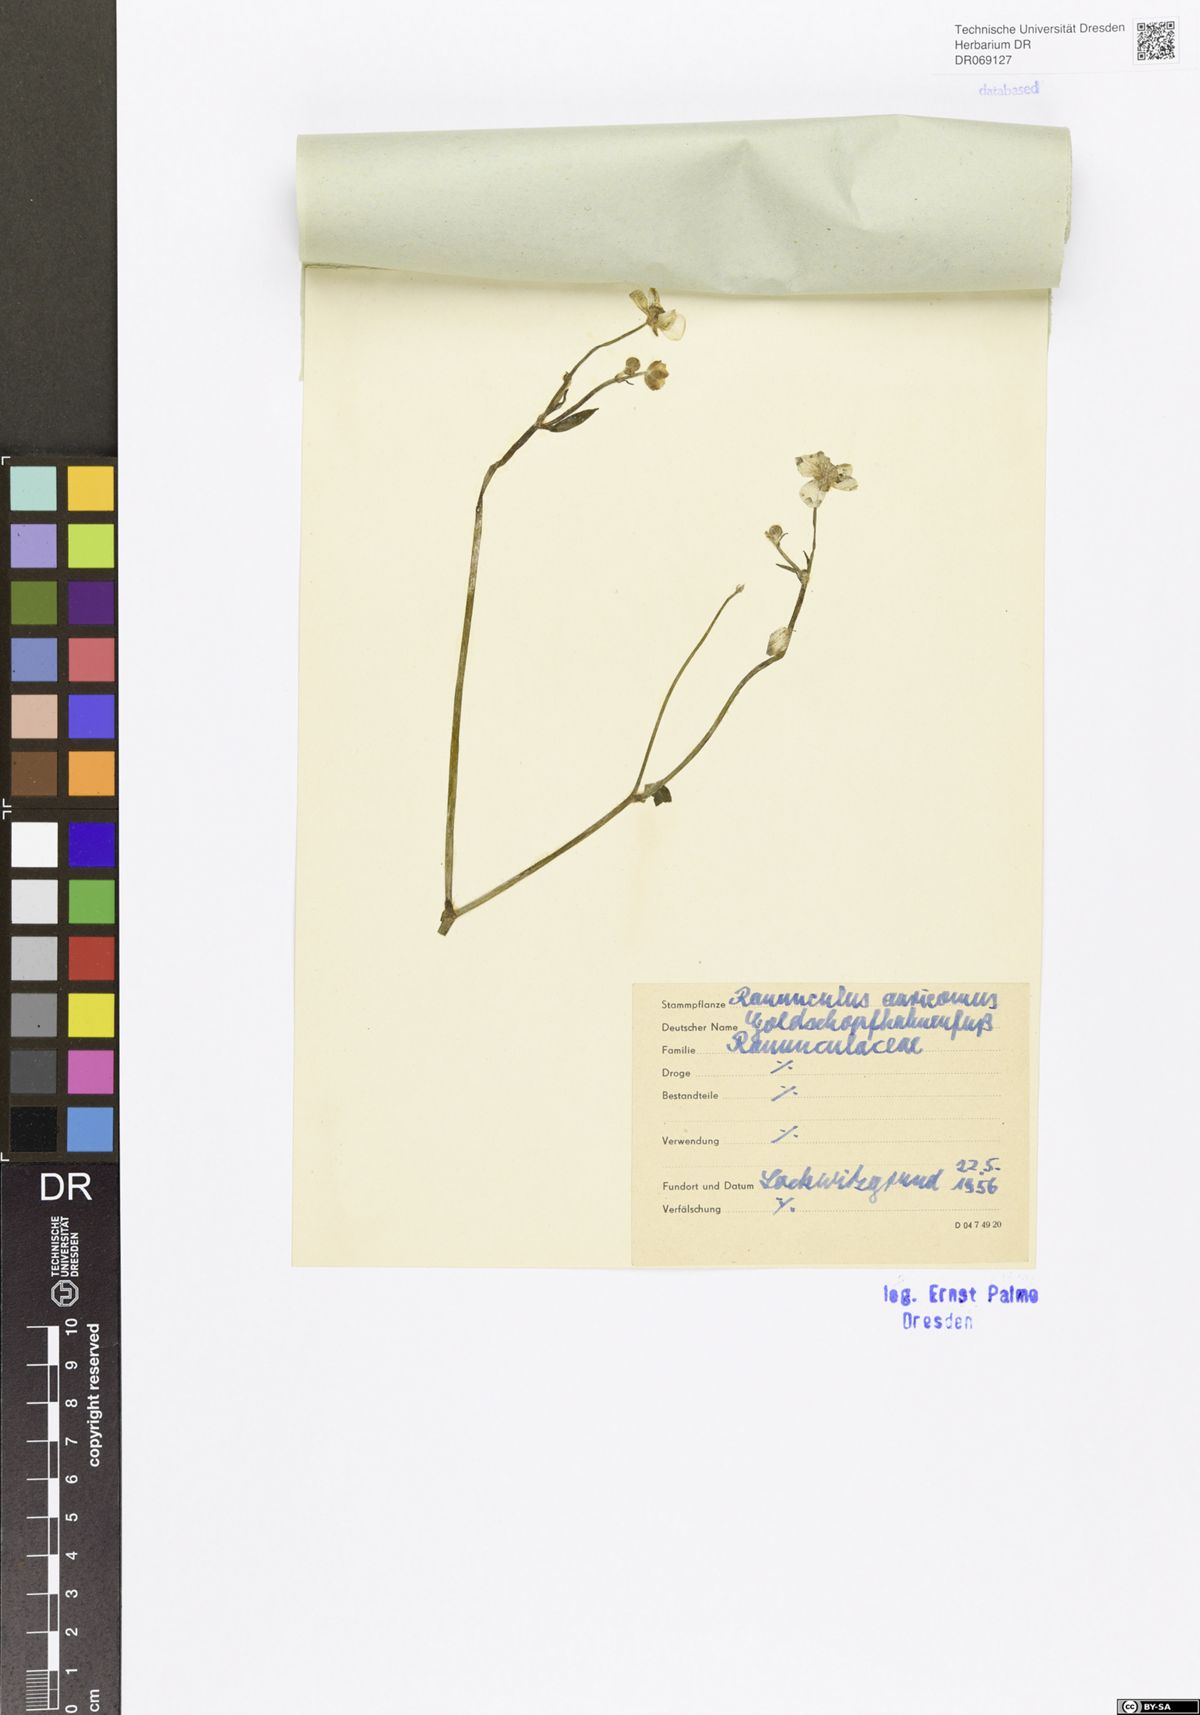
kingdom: Plantae
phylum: Tracheophyta
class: Magnoliopsida
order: Ranunculales
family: Ranunculaceae
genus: Ranunculus
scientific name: Ranunculus auricomus
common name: Goldilocks buttercup
